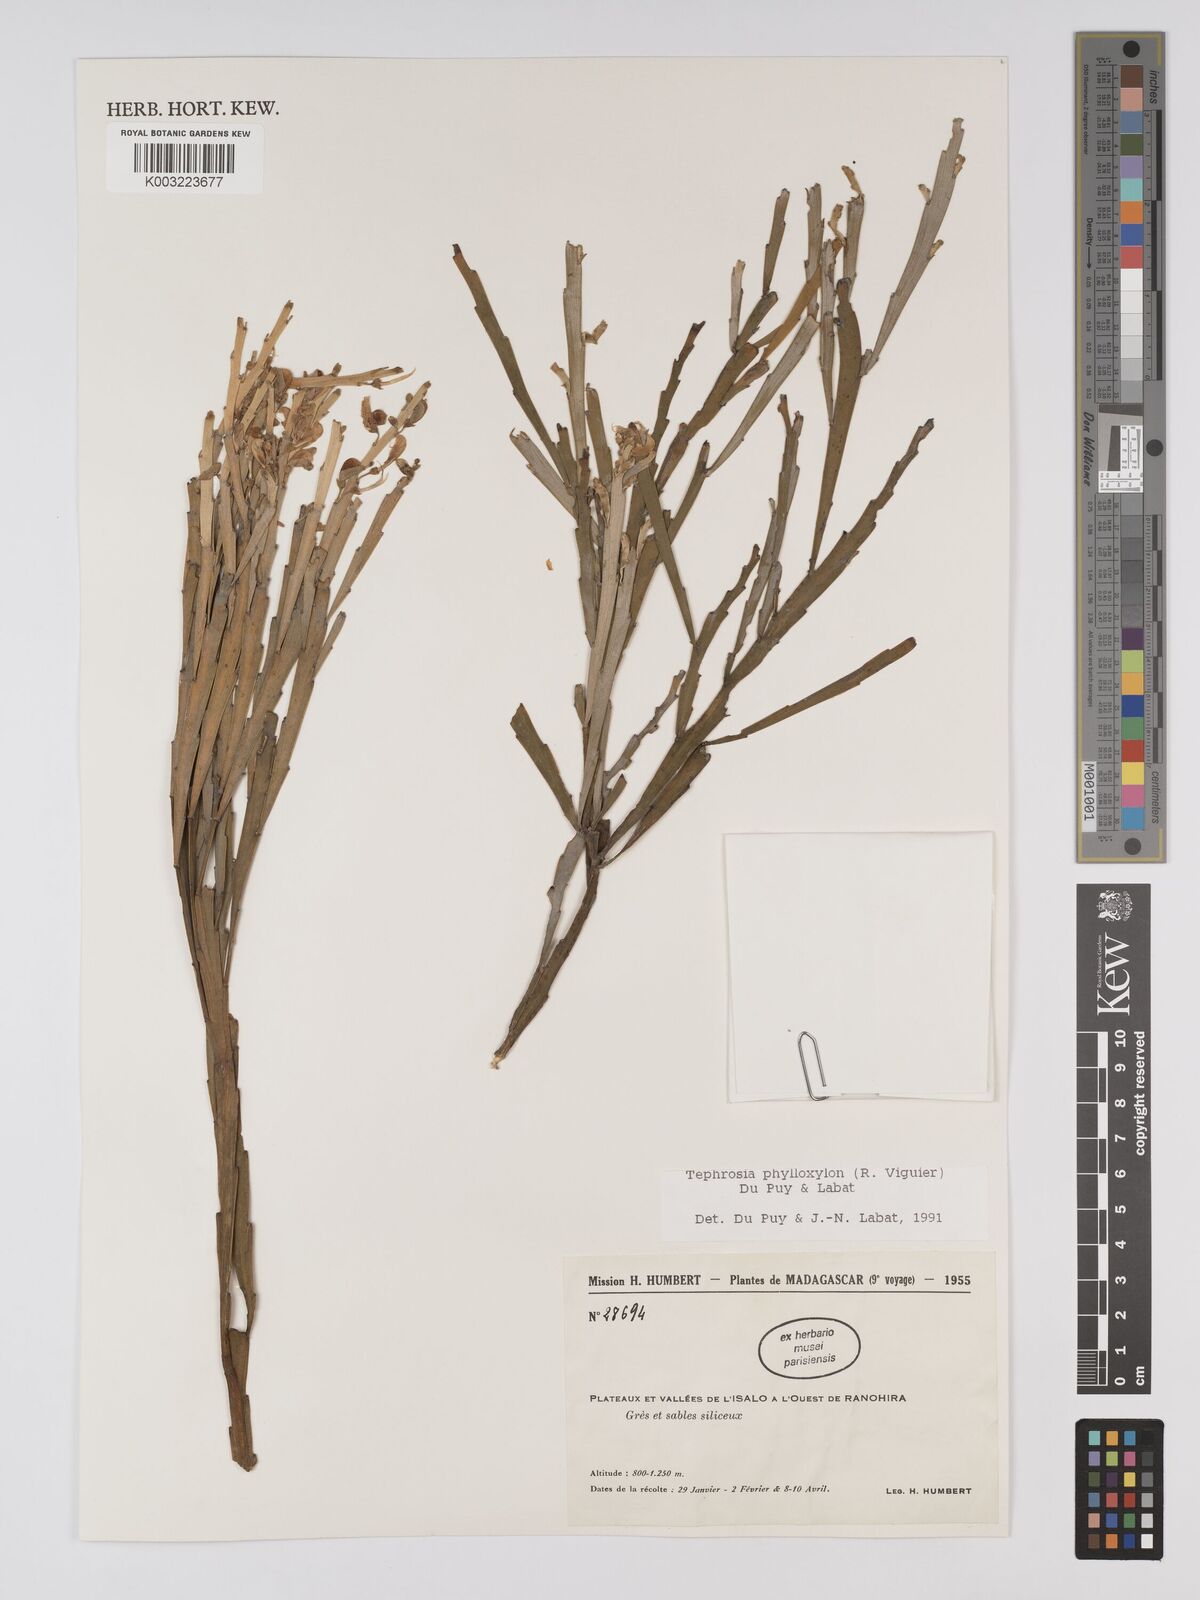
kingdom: Plantae
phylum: Tracheophyta
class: Magnoliopsida
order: Fabales
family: Fabaceae
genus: Tephrosia
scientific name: Tephrosia phylloxylon
